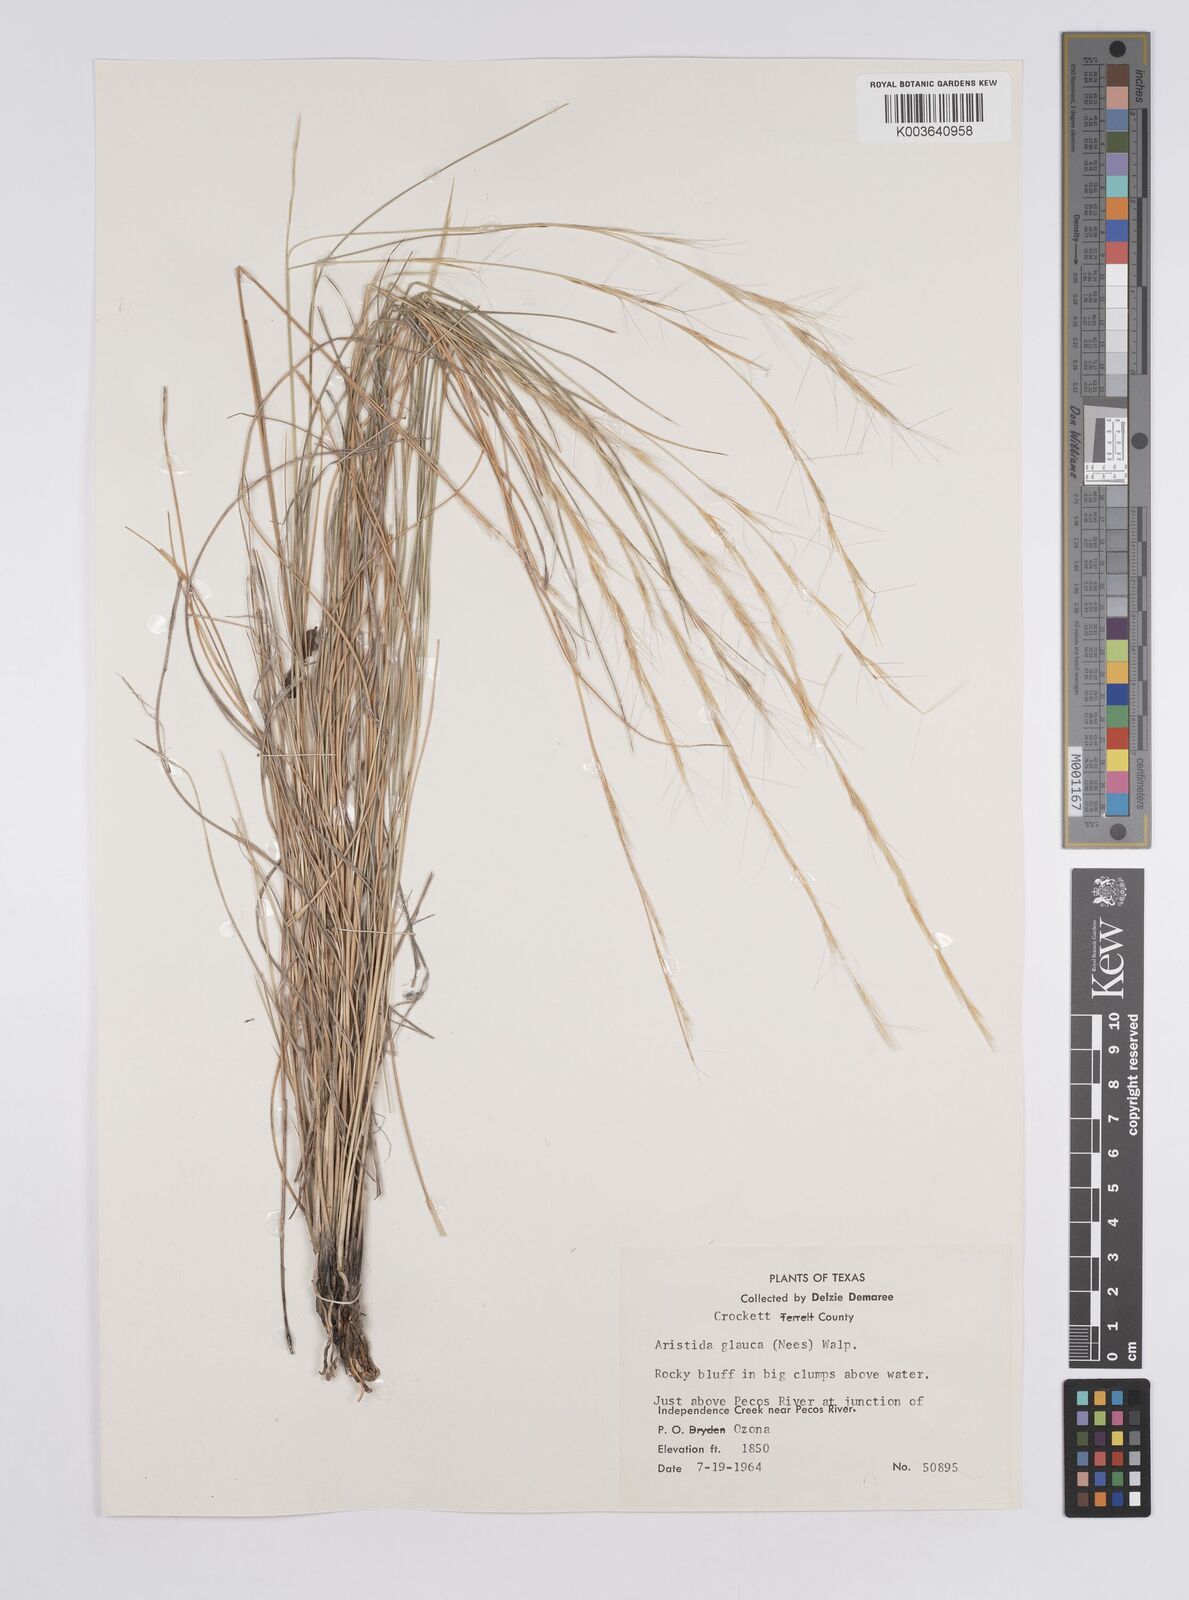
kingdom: Plantae
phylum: Tracheophyta
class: Liliopsida
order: Poales
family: Poaceae
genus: Aristida
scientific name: Aristida purpurea
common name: Purple threeawn
